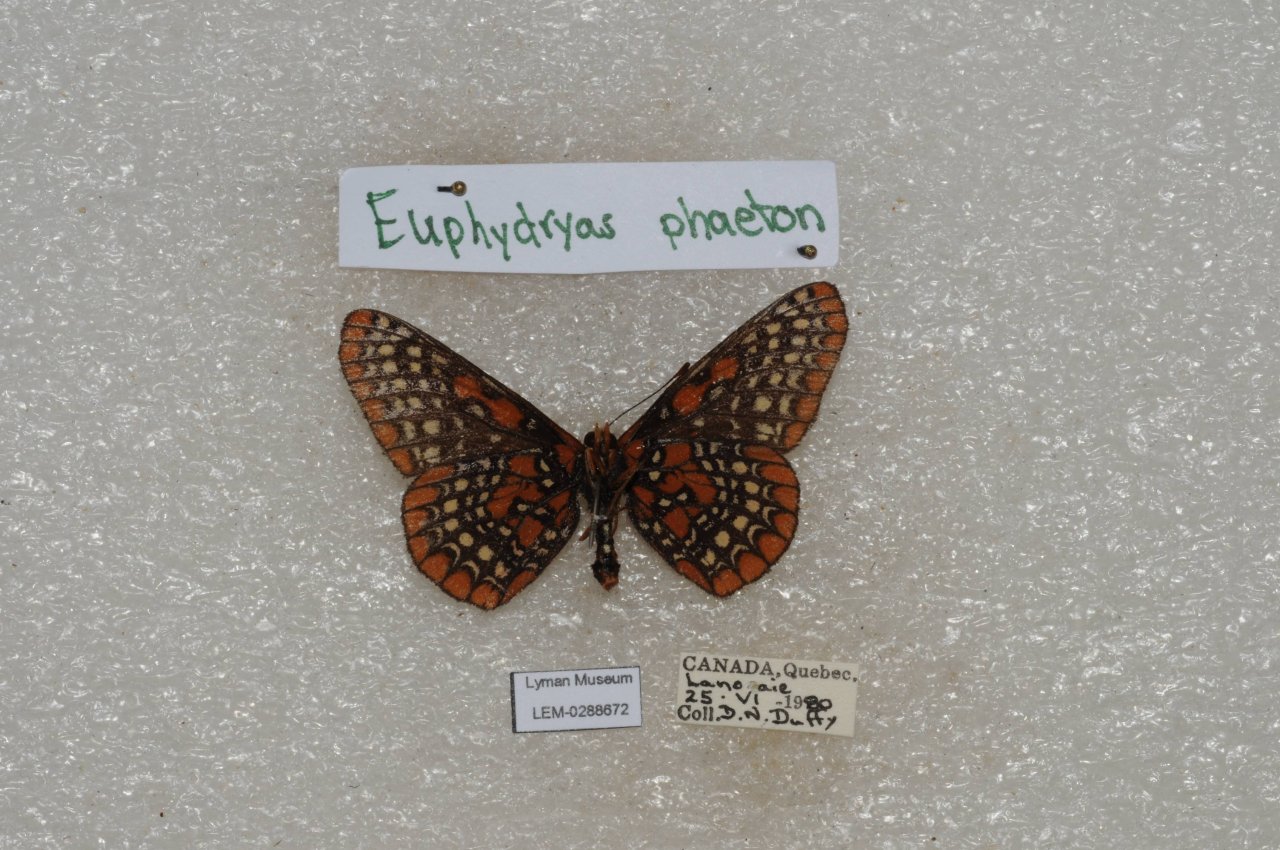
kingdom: Animalia
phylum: Arthropoda
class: Insecta
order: Lepidoptera
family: Nymphalidae
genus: Euphydryas
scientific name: Euphydryas phaeton
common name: Baltimore Checkerspot
